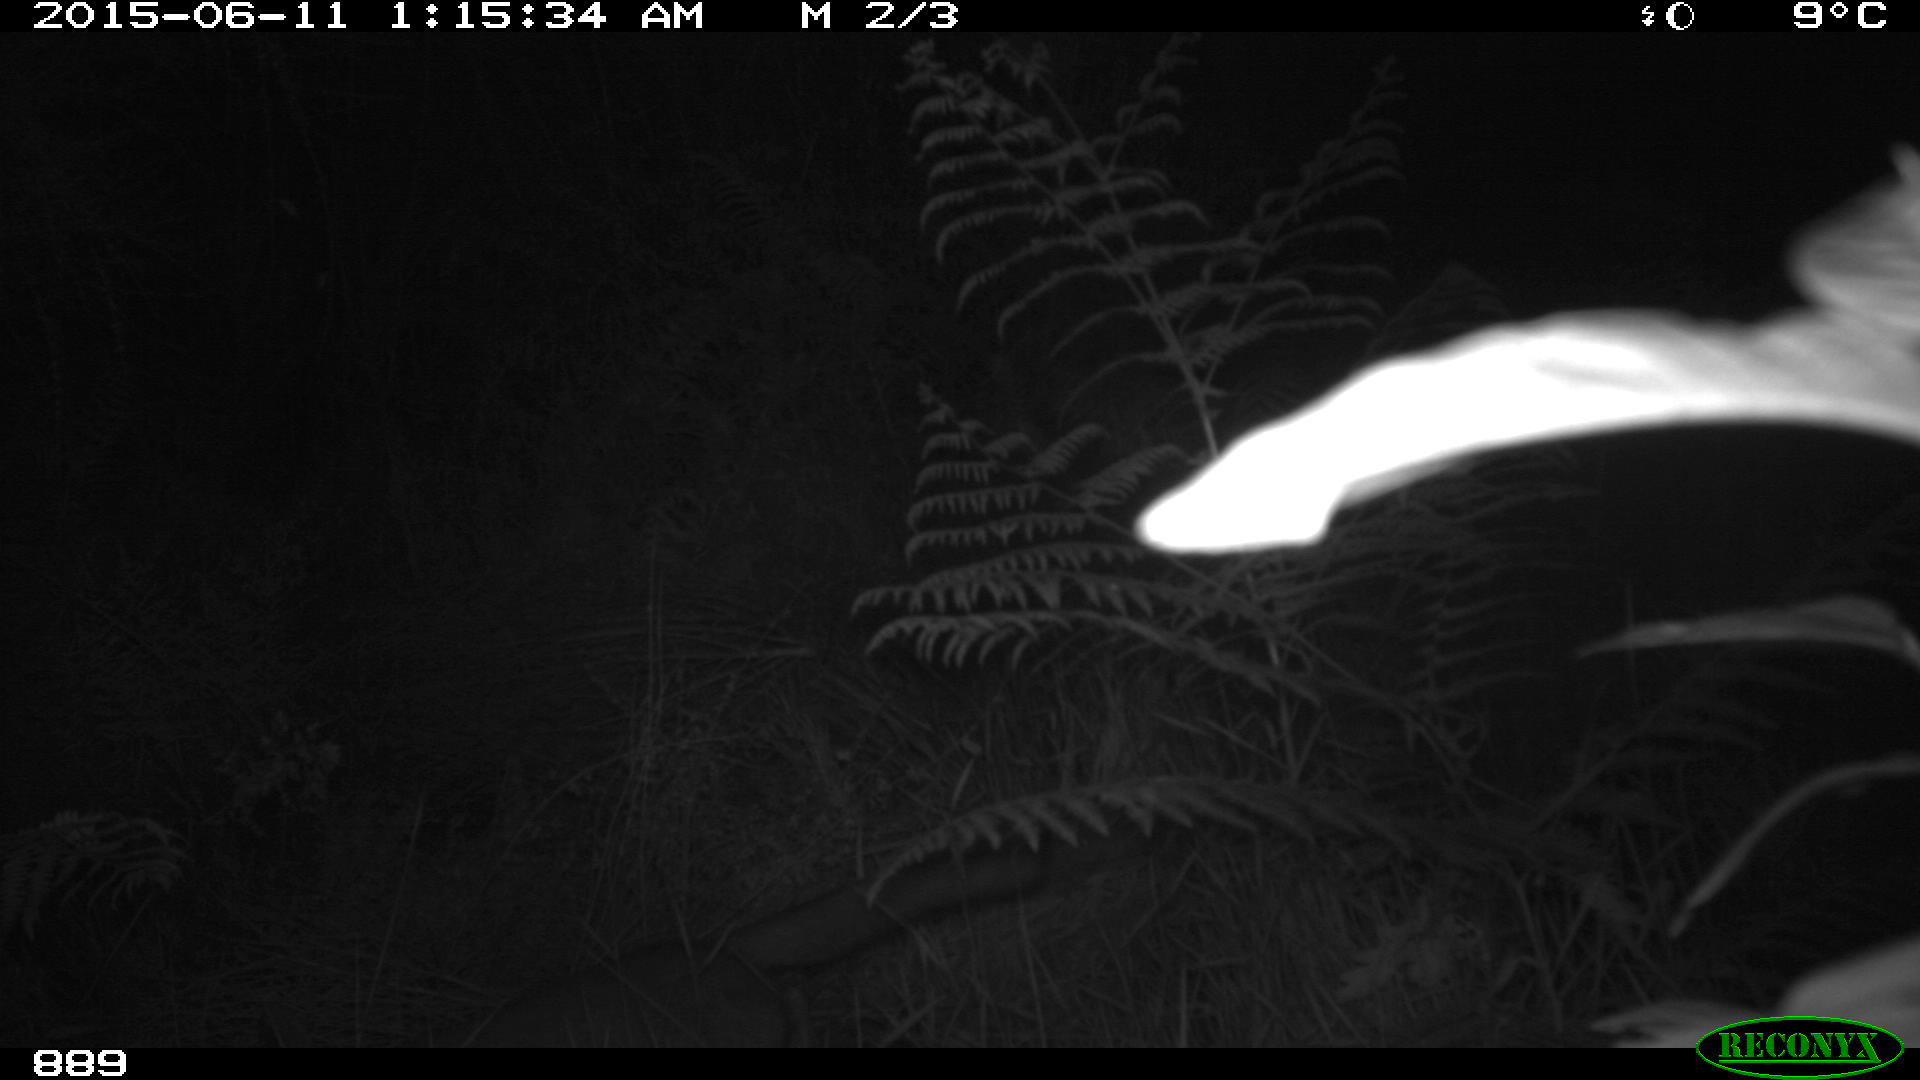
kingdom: Animalia
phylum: Chordata
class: Mammalia
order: Carnivora
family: Canidae
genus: Vulpes
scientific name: Vulpes vulpes
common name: Red fox
